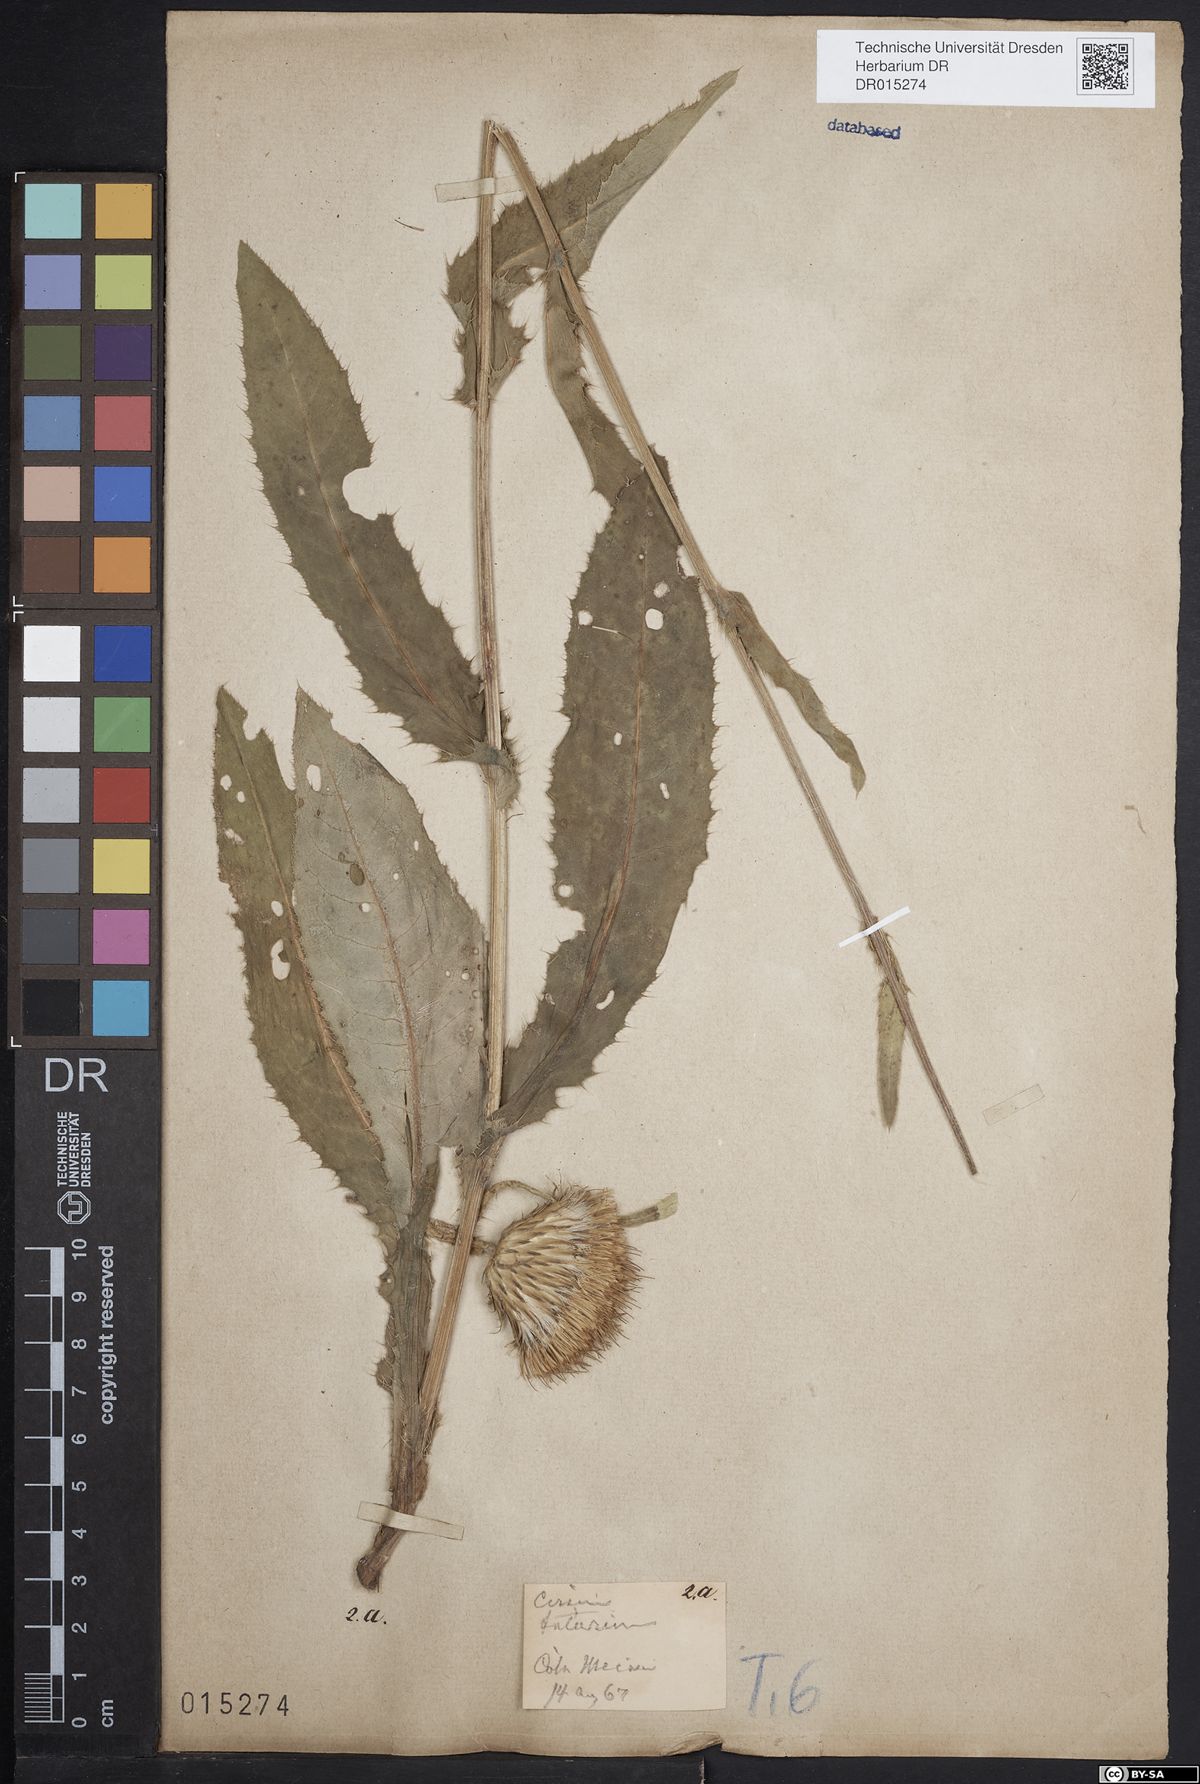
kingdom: Plantae
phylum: Tracheophyta
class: Magnoliopsida
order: Asterales
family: Asteraceae
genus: Cirsium
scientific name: Cirsium tataricum
